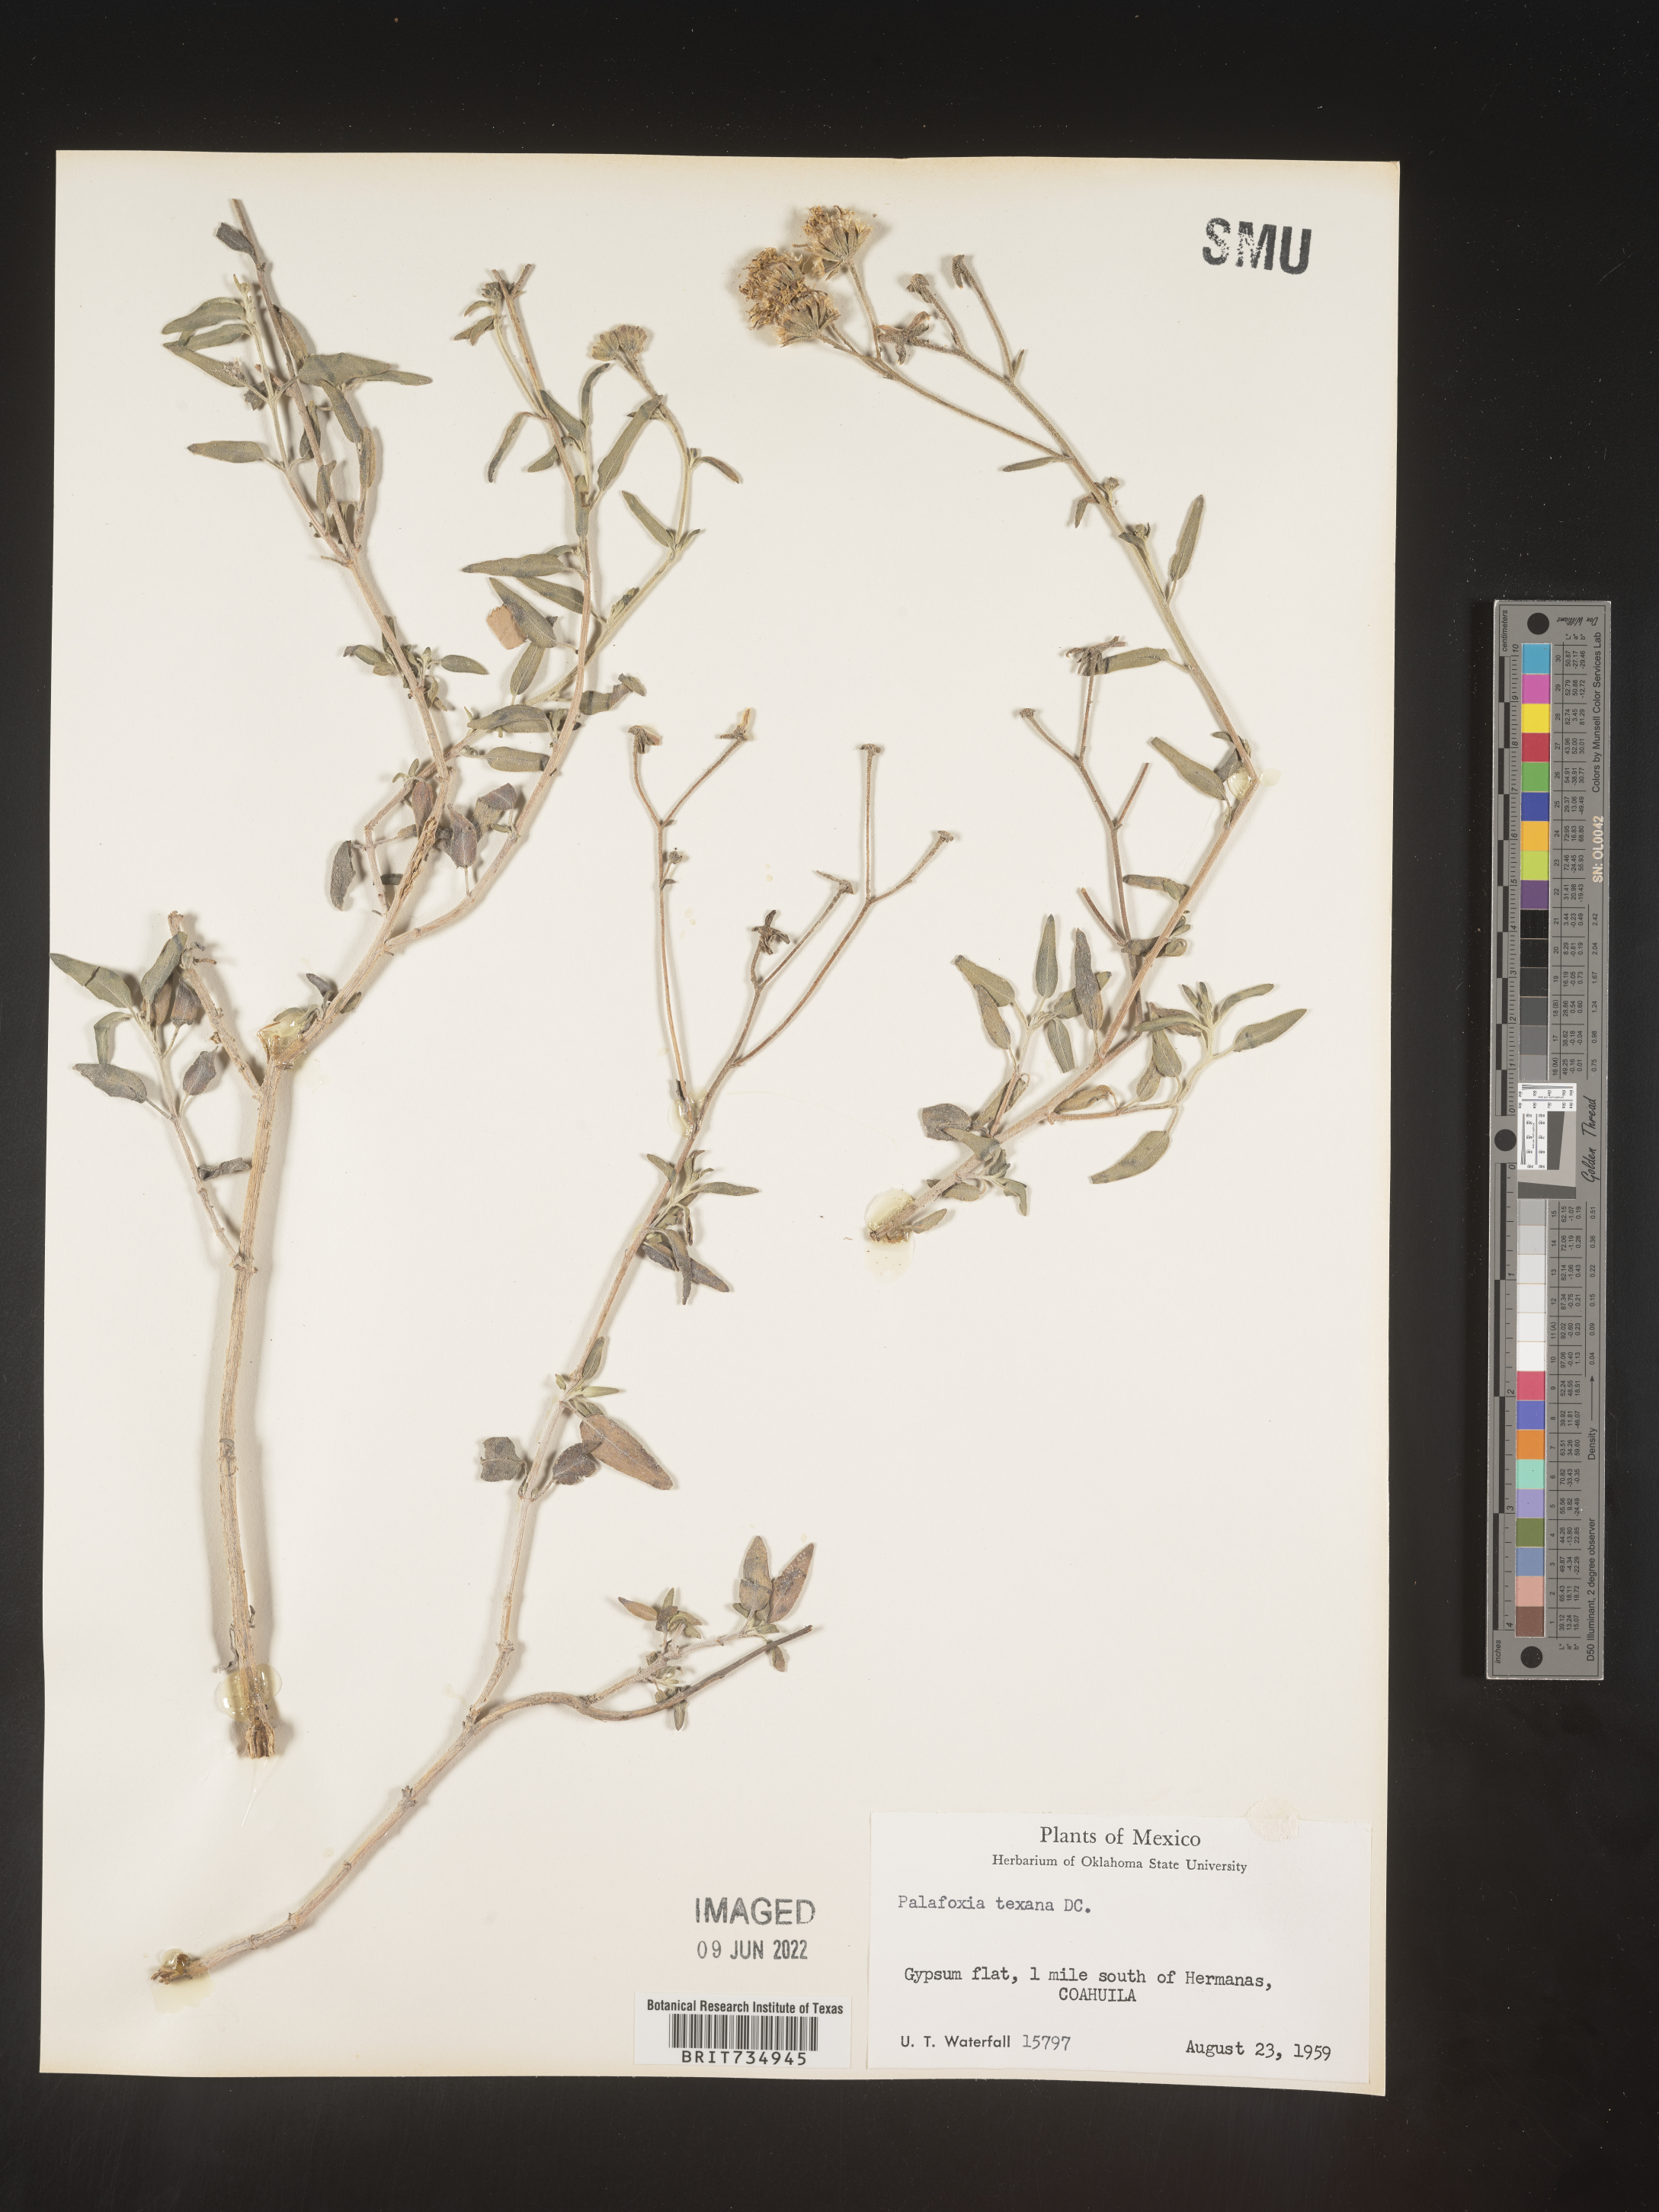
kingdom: Plantae
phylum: Tracheophyta
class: Magnoliopsida
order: Asterales
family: Asteraceae
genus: Palafoxia
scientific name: Palafoxia texana
